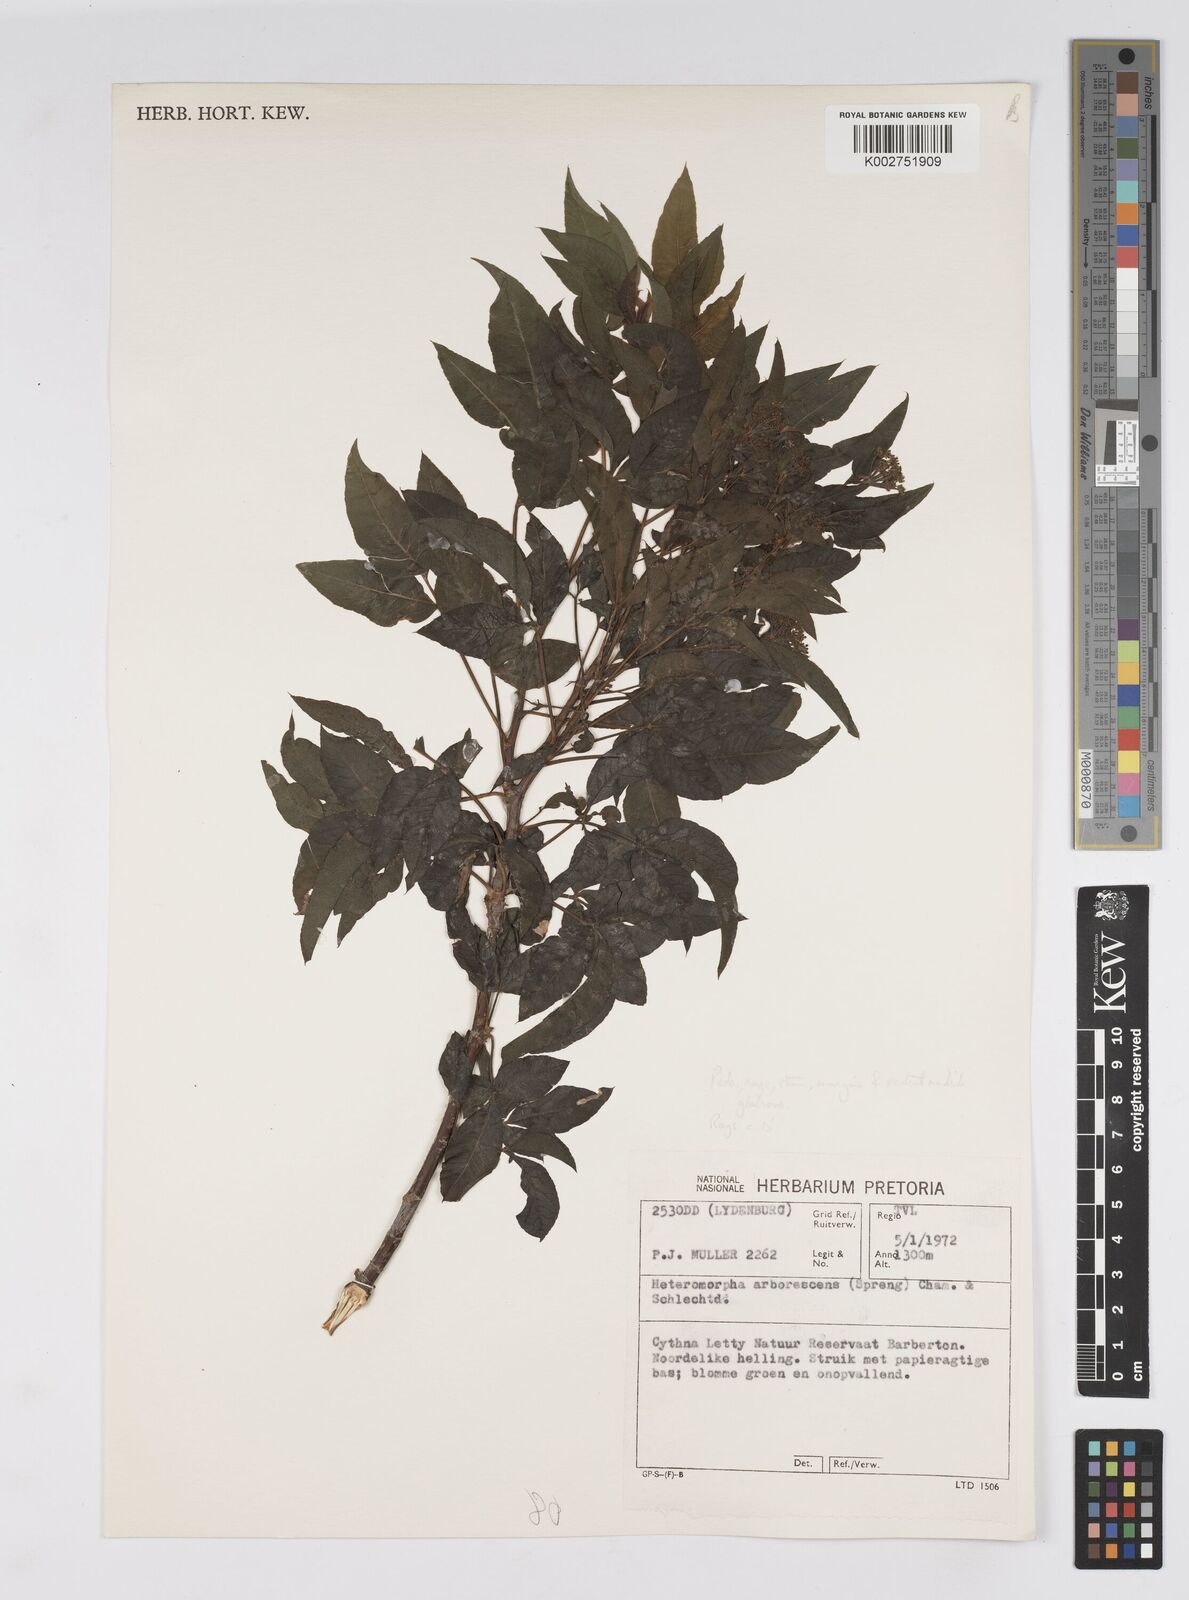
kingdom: Plantae
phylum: Tracheophyta
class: Magnoliopsida
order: Apiales
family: Apiaceae
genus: Heteromorpha
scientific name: Heteromorpha arborescens
